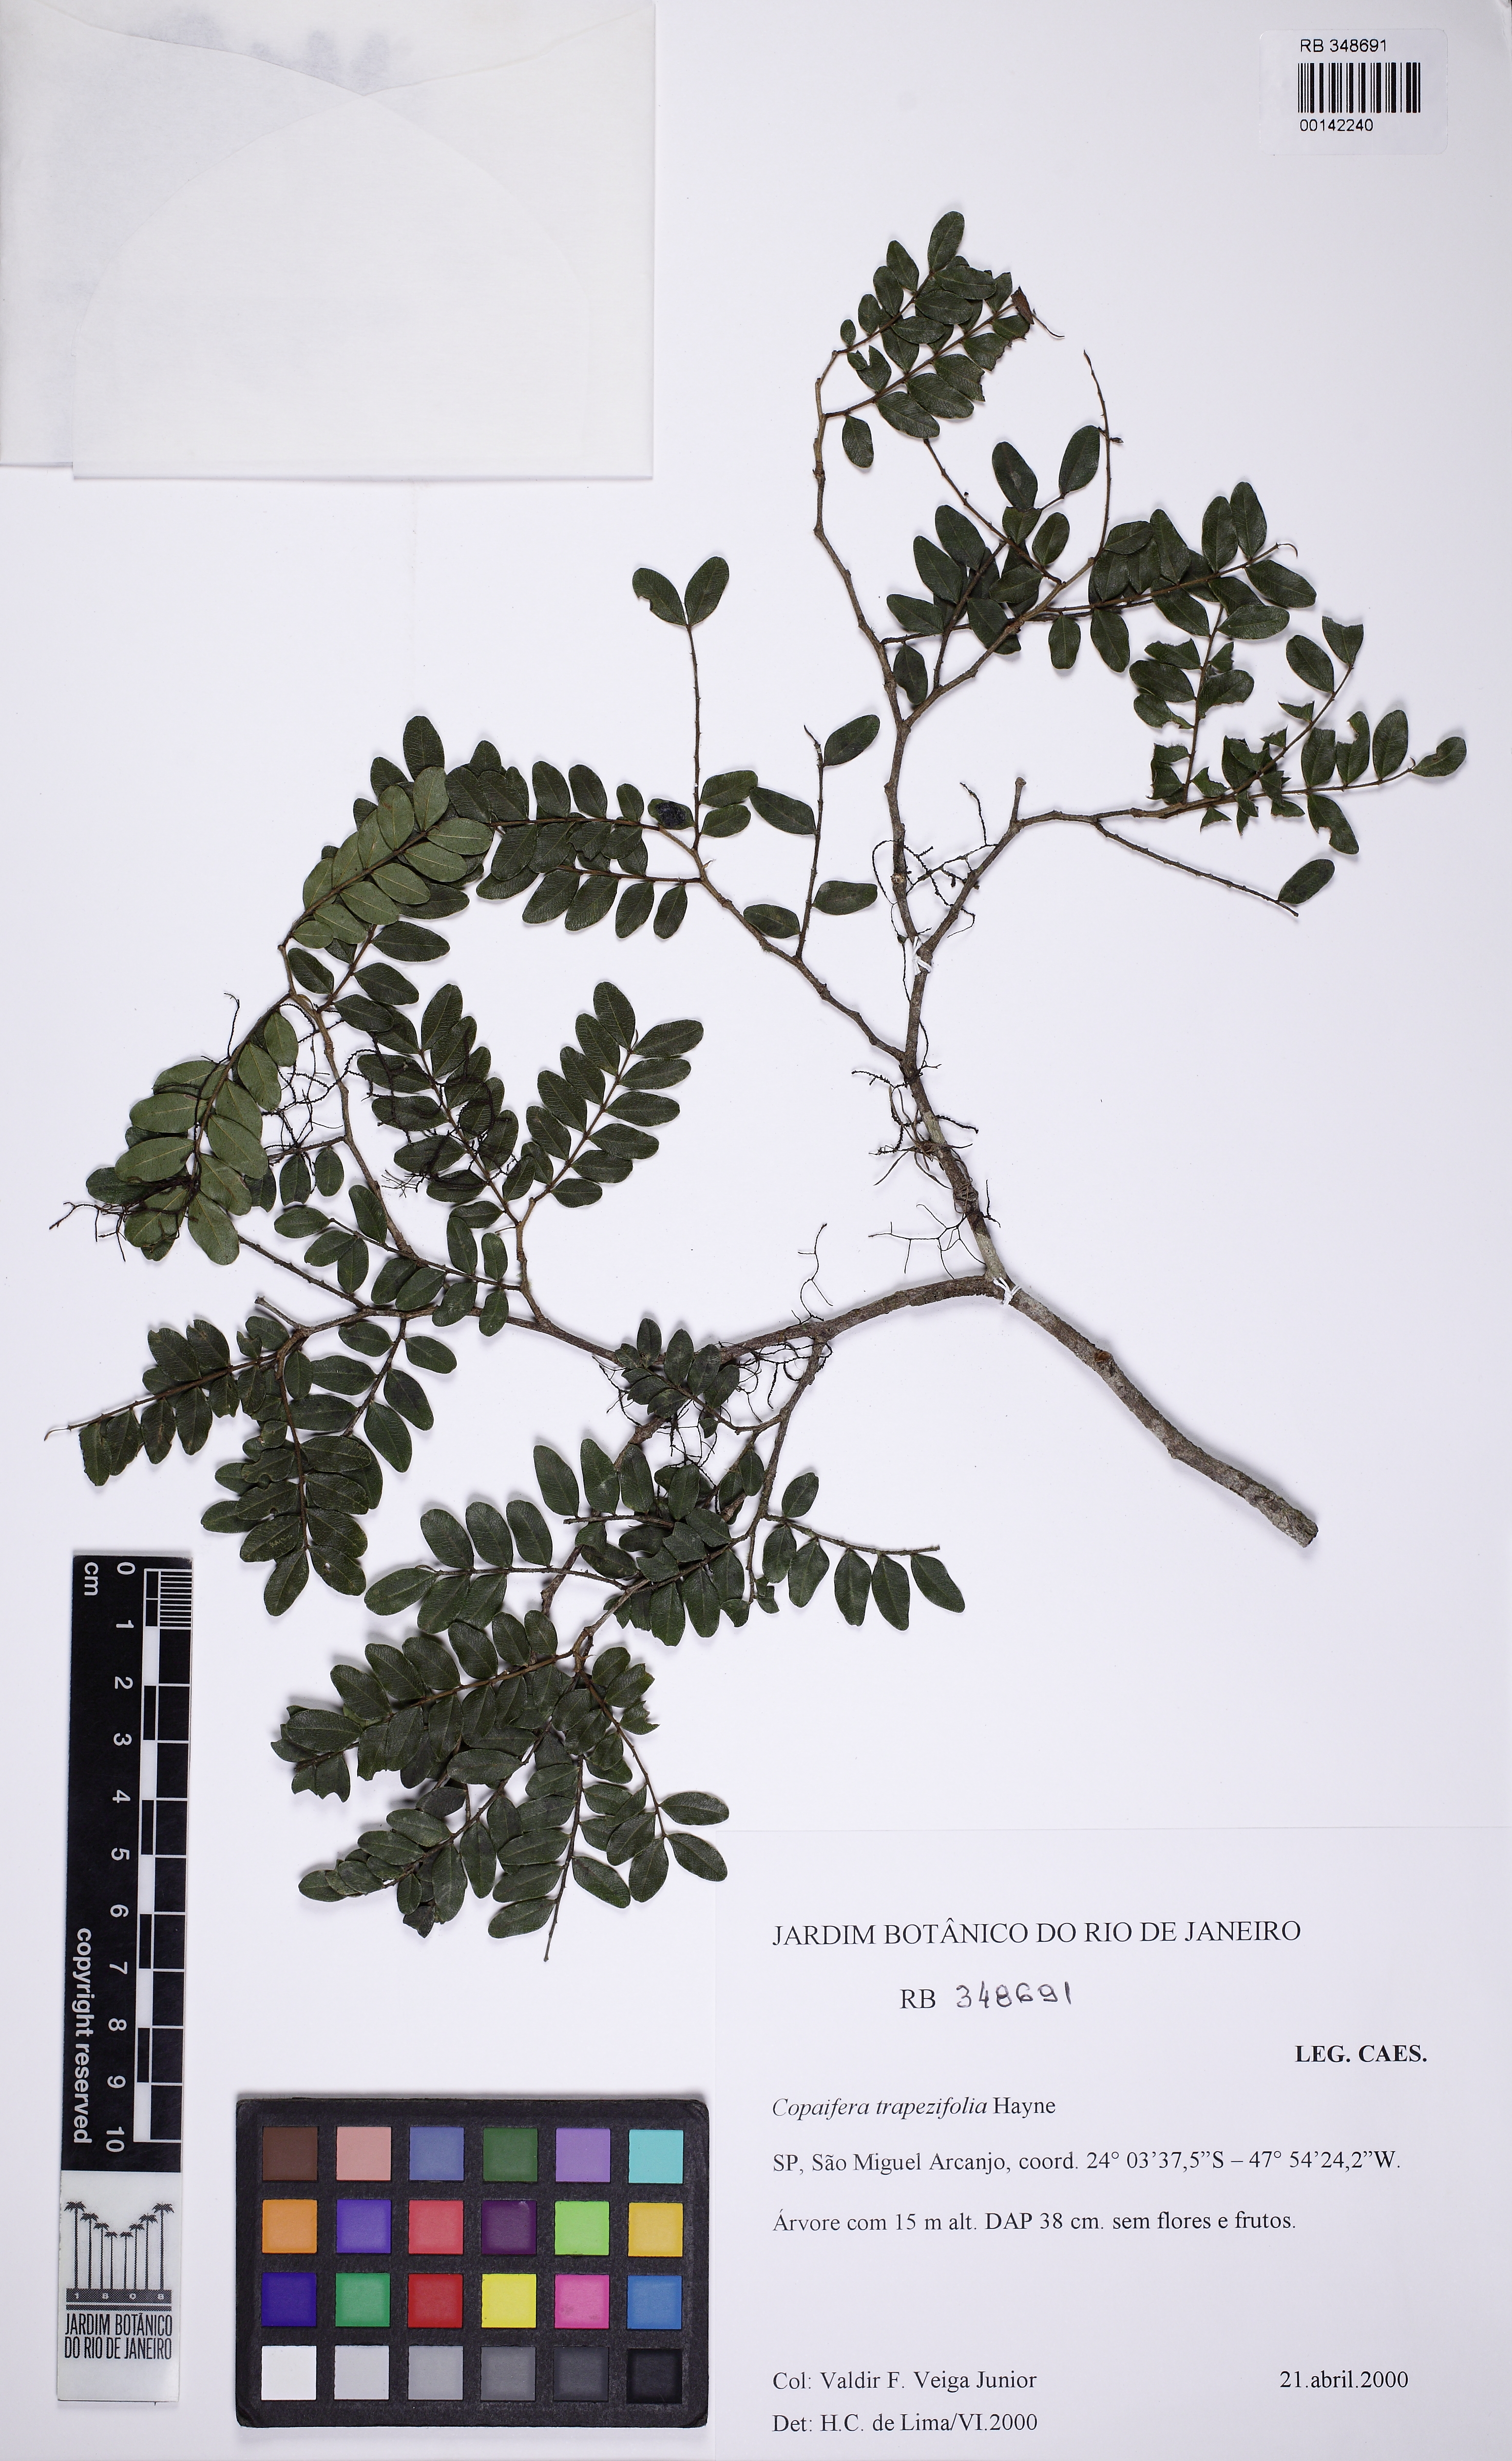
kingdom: Plantae
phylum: Tracheophyta
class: Magnoliopsida
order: Fabales
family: Fabaceae
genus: Copaifera
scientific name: Copaifera trapezifolia
